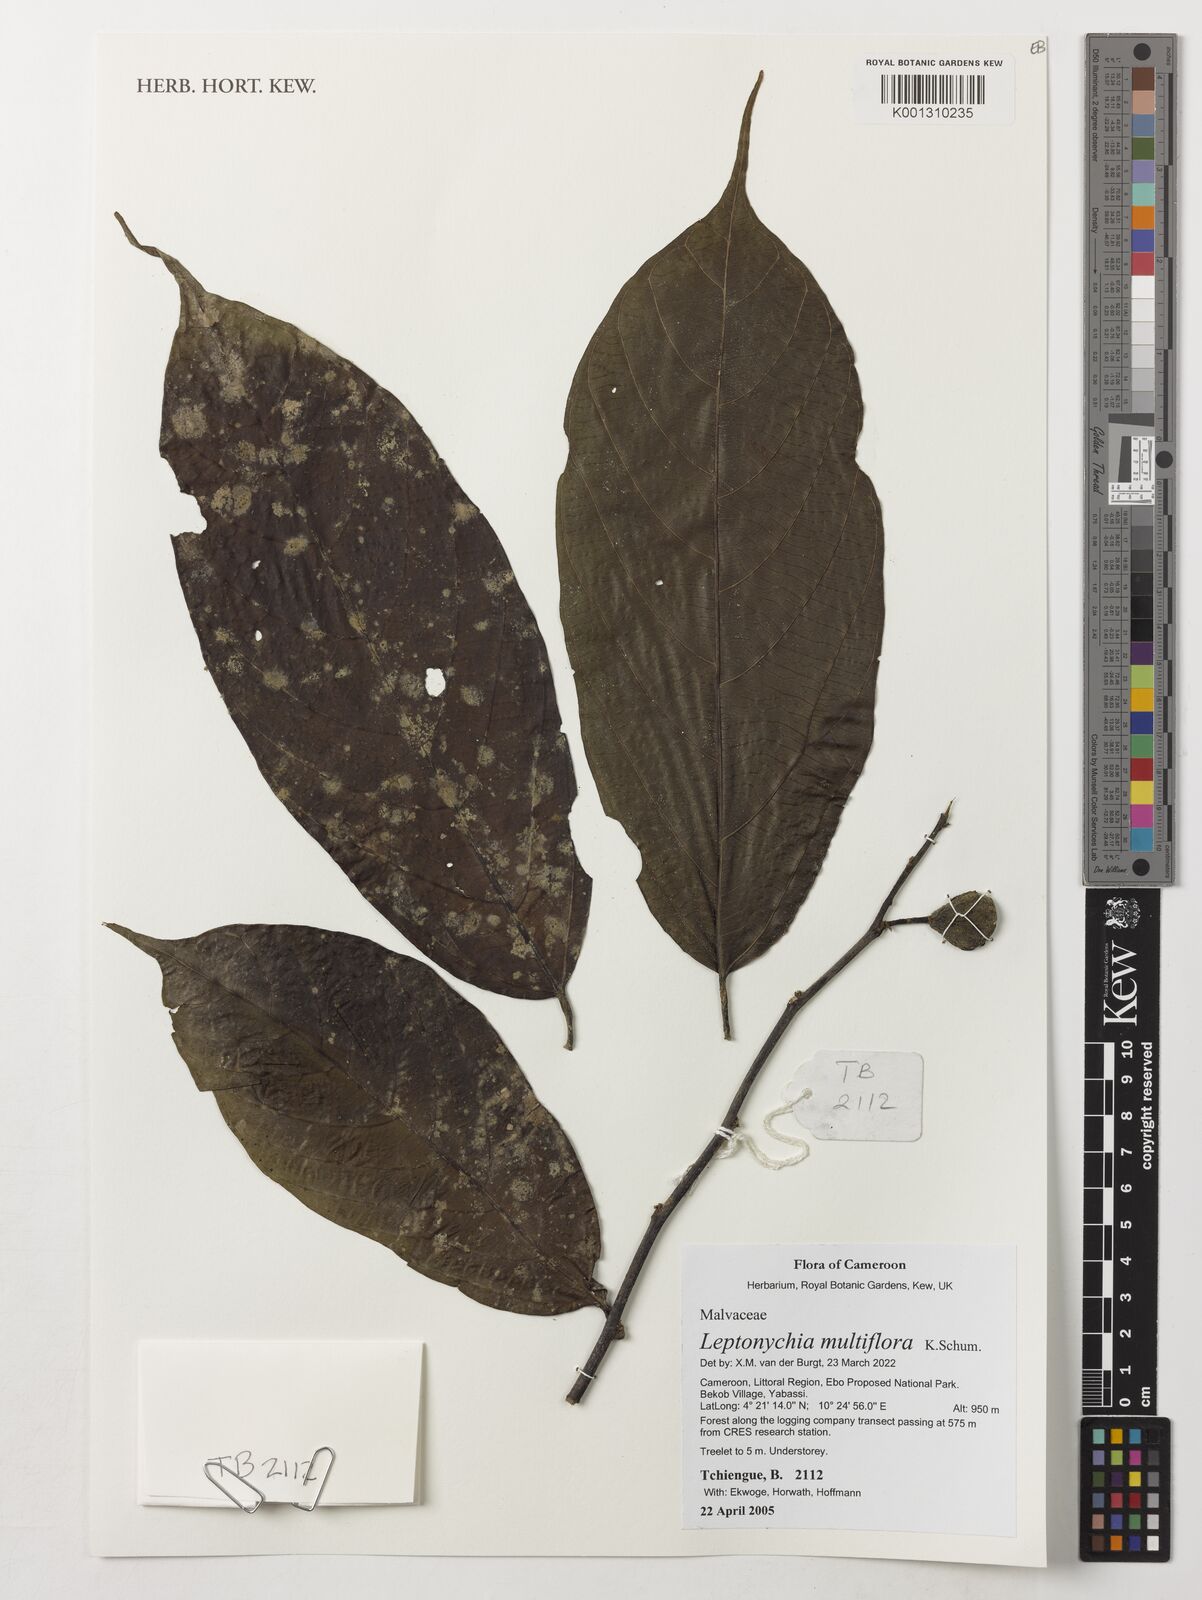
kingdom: Plantae
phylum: Tracheophyta
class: Magnoliopsida
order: Malvales
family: Malvaceae
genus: Leptonychia
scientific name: Leptonychia multiflora
